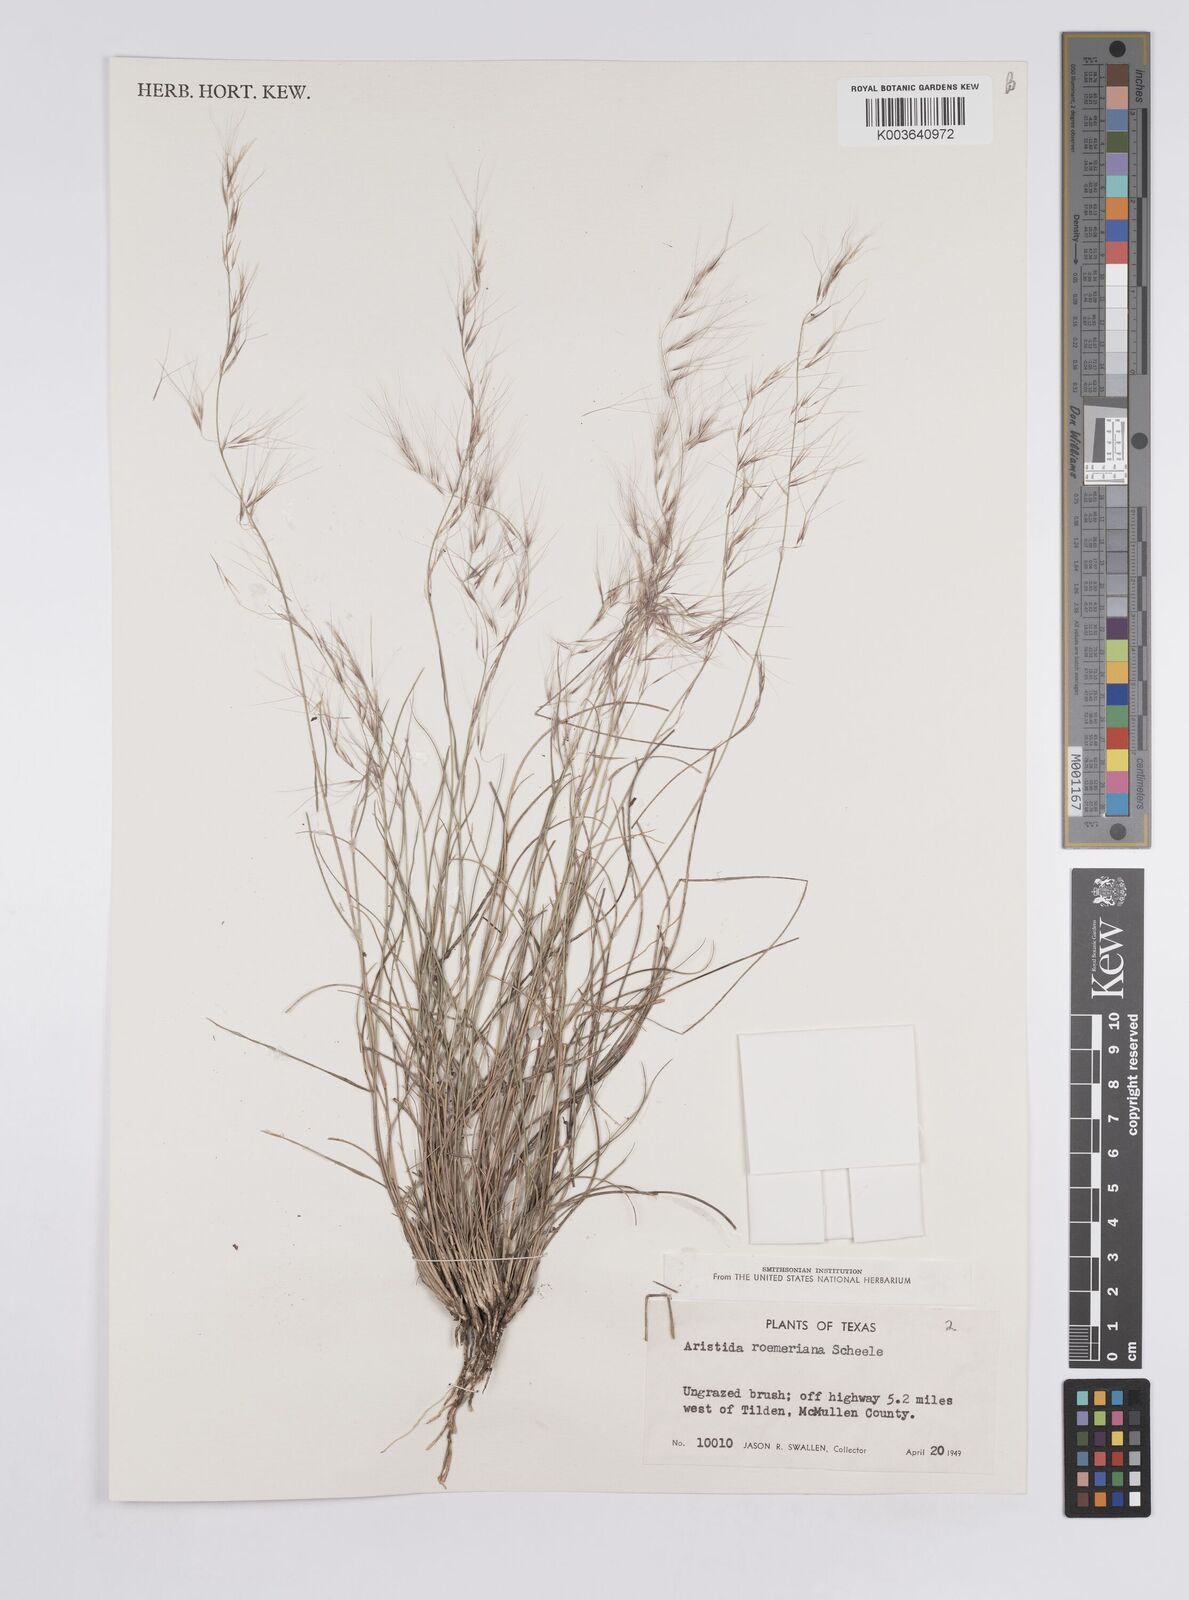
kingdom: Plantae
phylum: Tracheophyta
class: Liliopsida
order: Poales
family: Poaceae
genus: Aristida
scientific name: Aristida purpurea
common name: Purple threeawn
